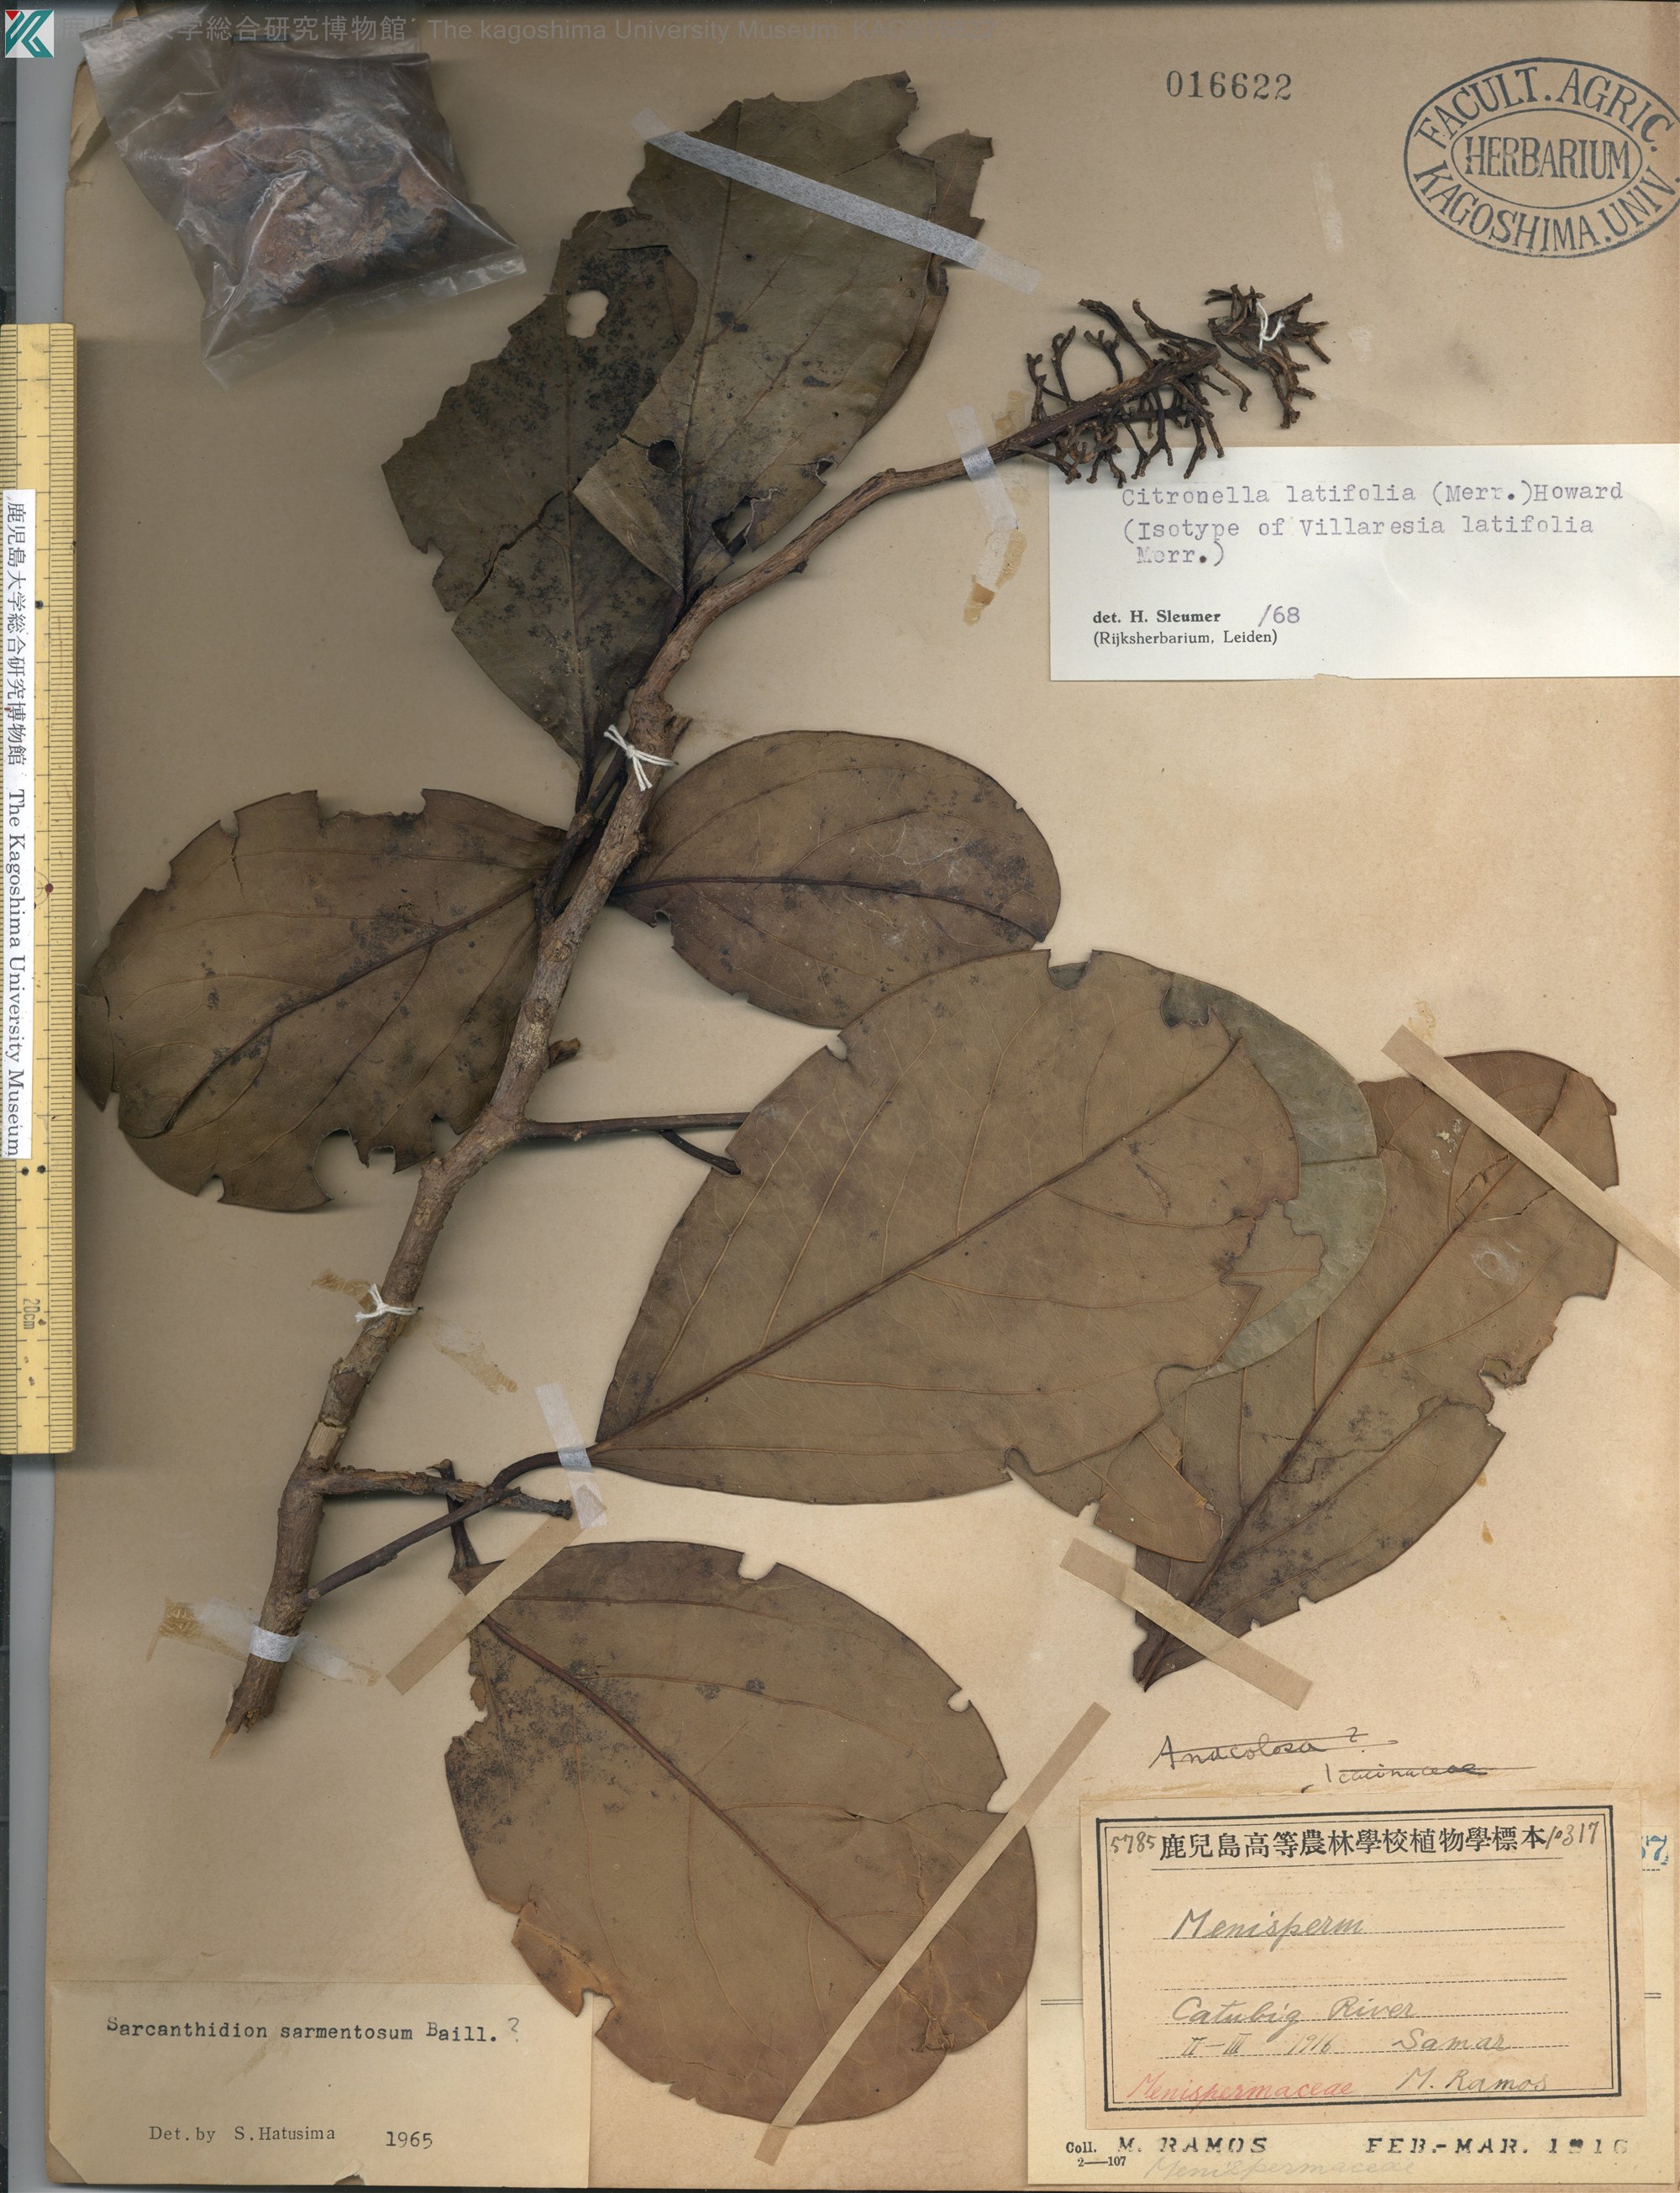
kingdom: Plantae
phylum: Tracheophyta
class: Magnoliopsida
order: Cardiopteridales
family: Cardiopteridaceae
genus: Citronella
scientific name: Citronella latifolia
